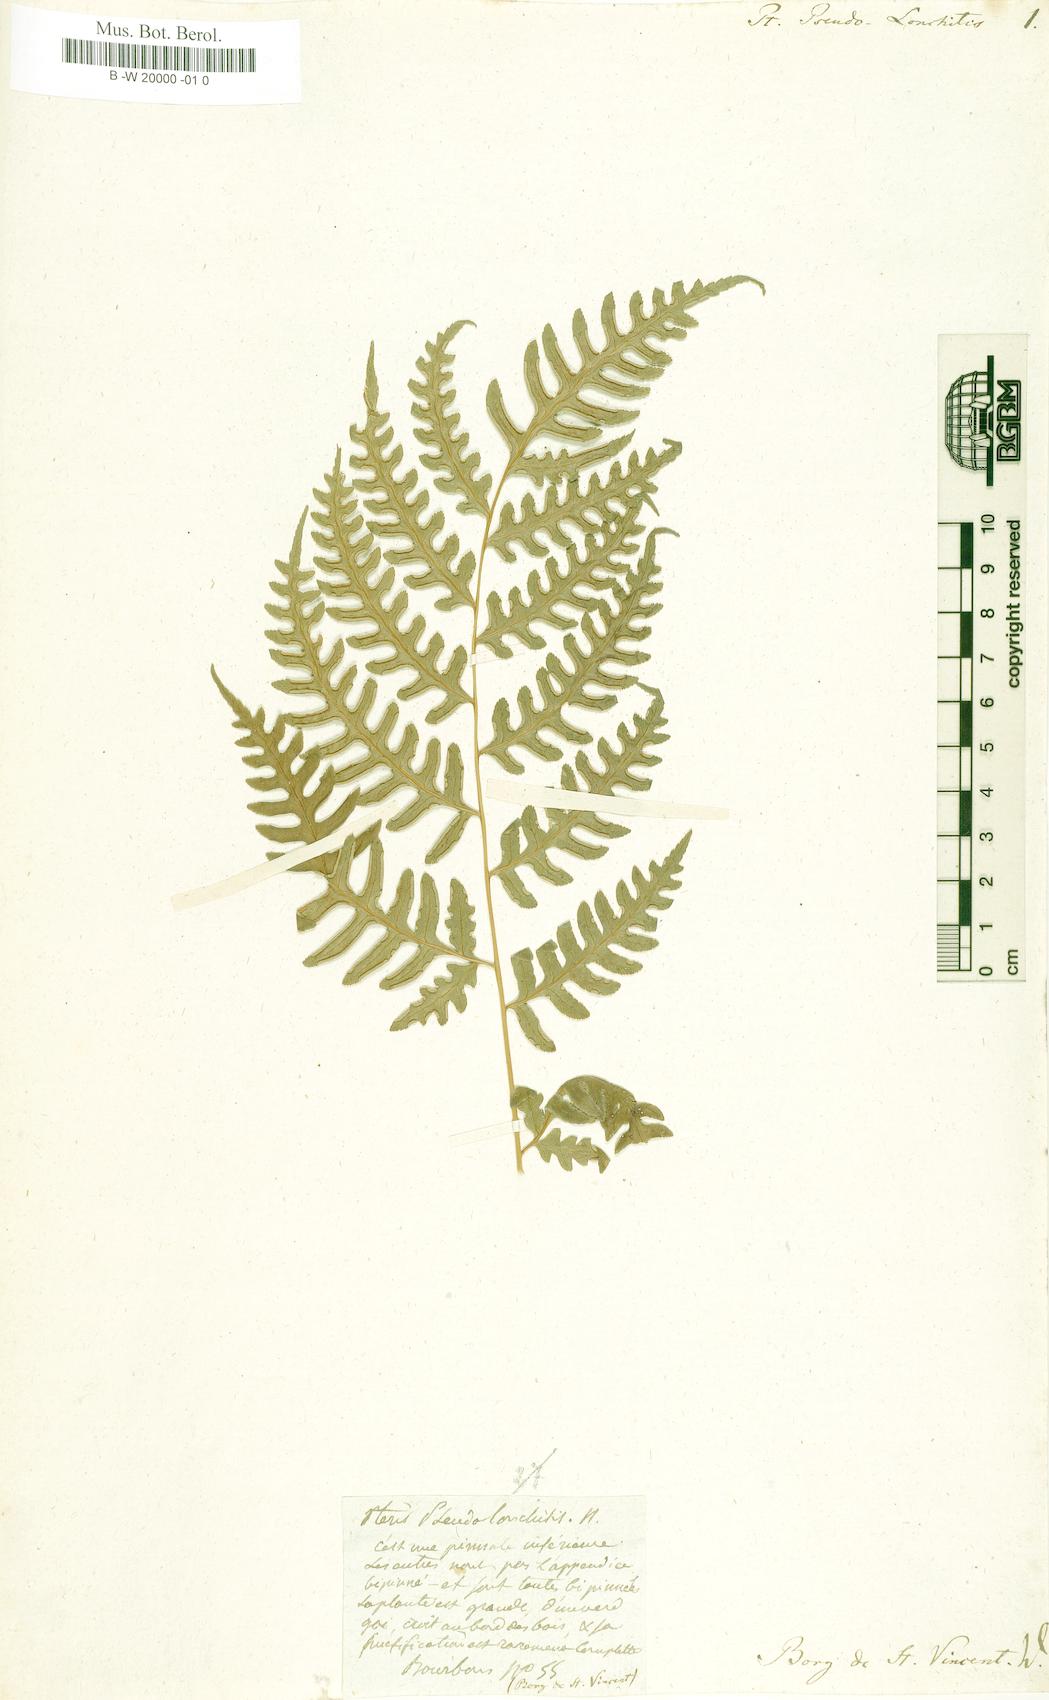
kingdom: Plantae
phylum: Tracheophyta
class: Polypodiopsida
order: Polypodiales
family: Pteridaceae
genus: Pteris
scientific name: Pteris pseudolonchitis
